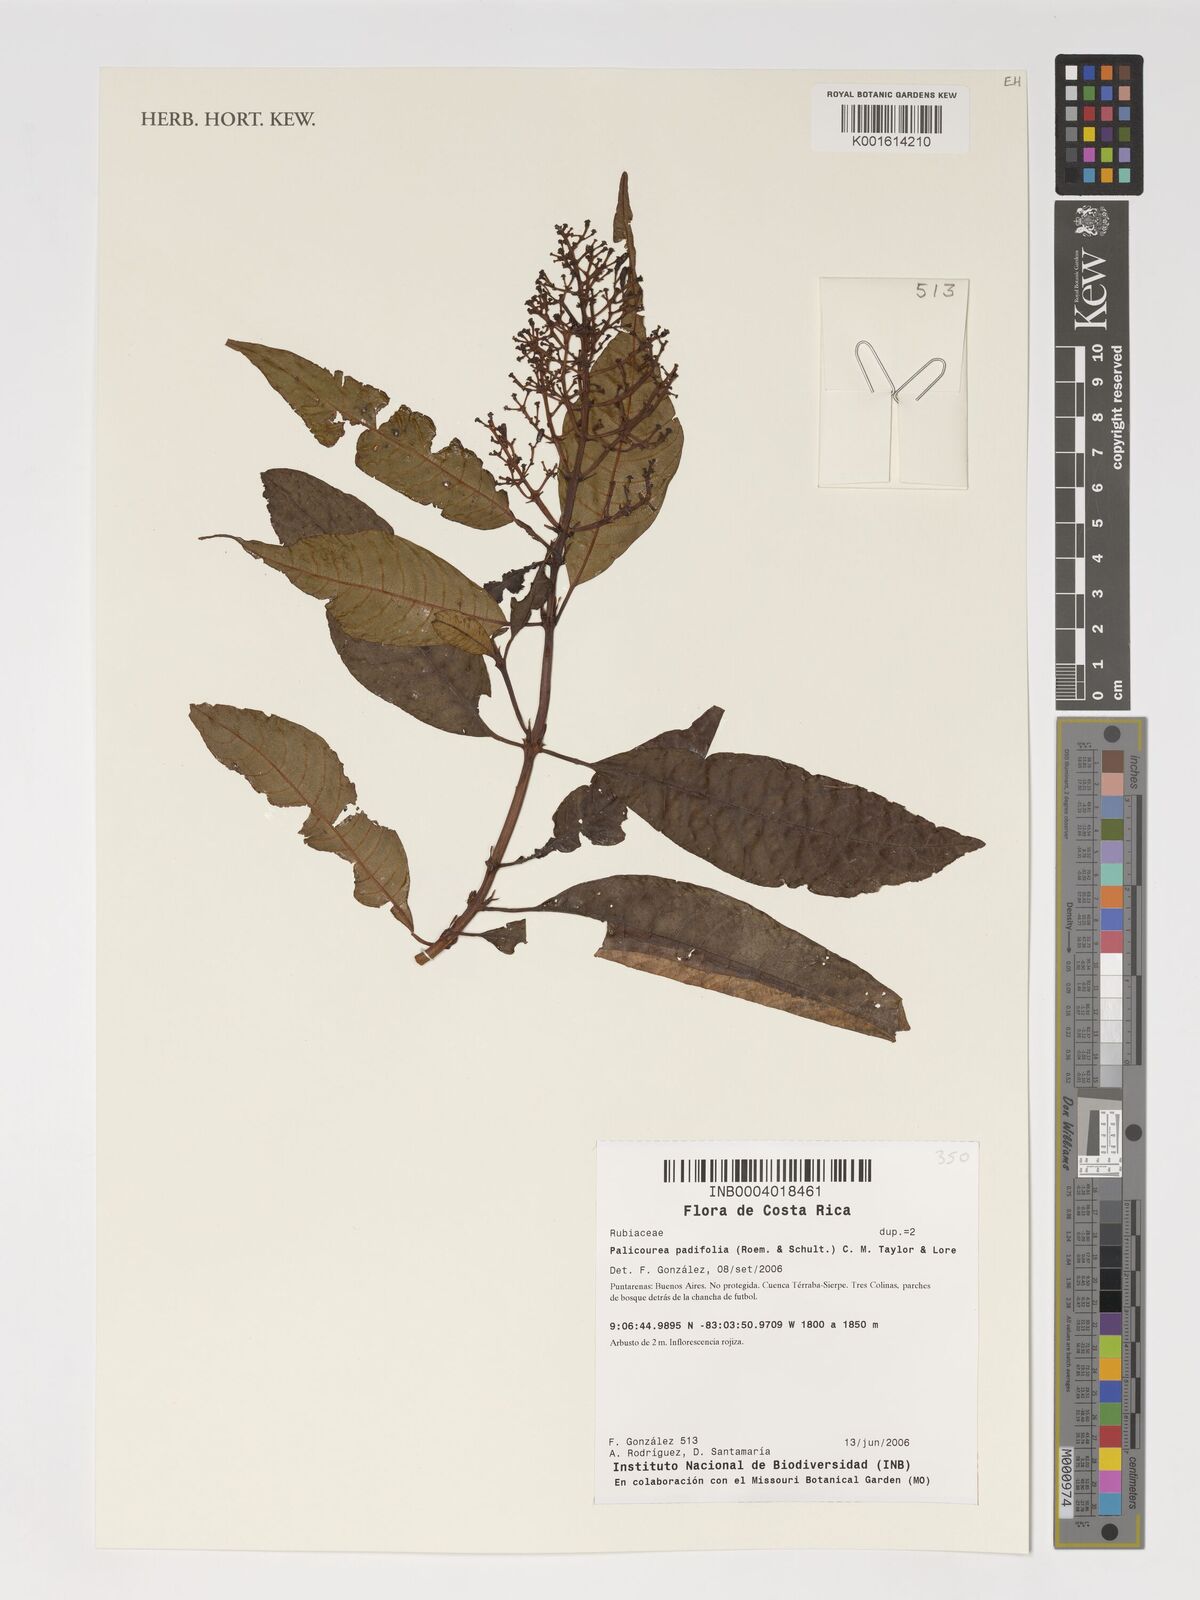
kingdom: Plantae
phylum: Tracheophyta
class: Magnoliopsida
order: Gentianales
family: Rubiaceae
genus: Palicourea
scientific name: Palicourea padifolia
